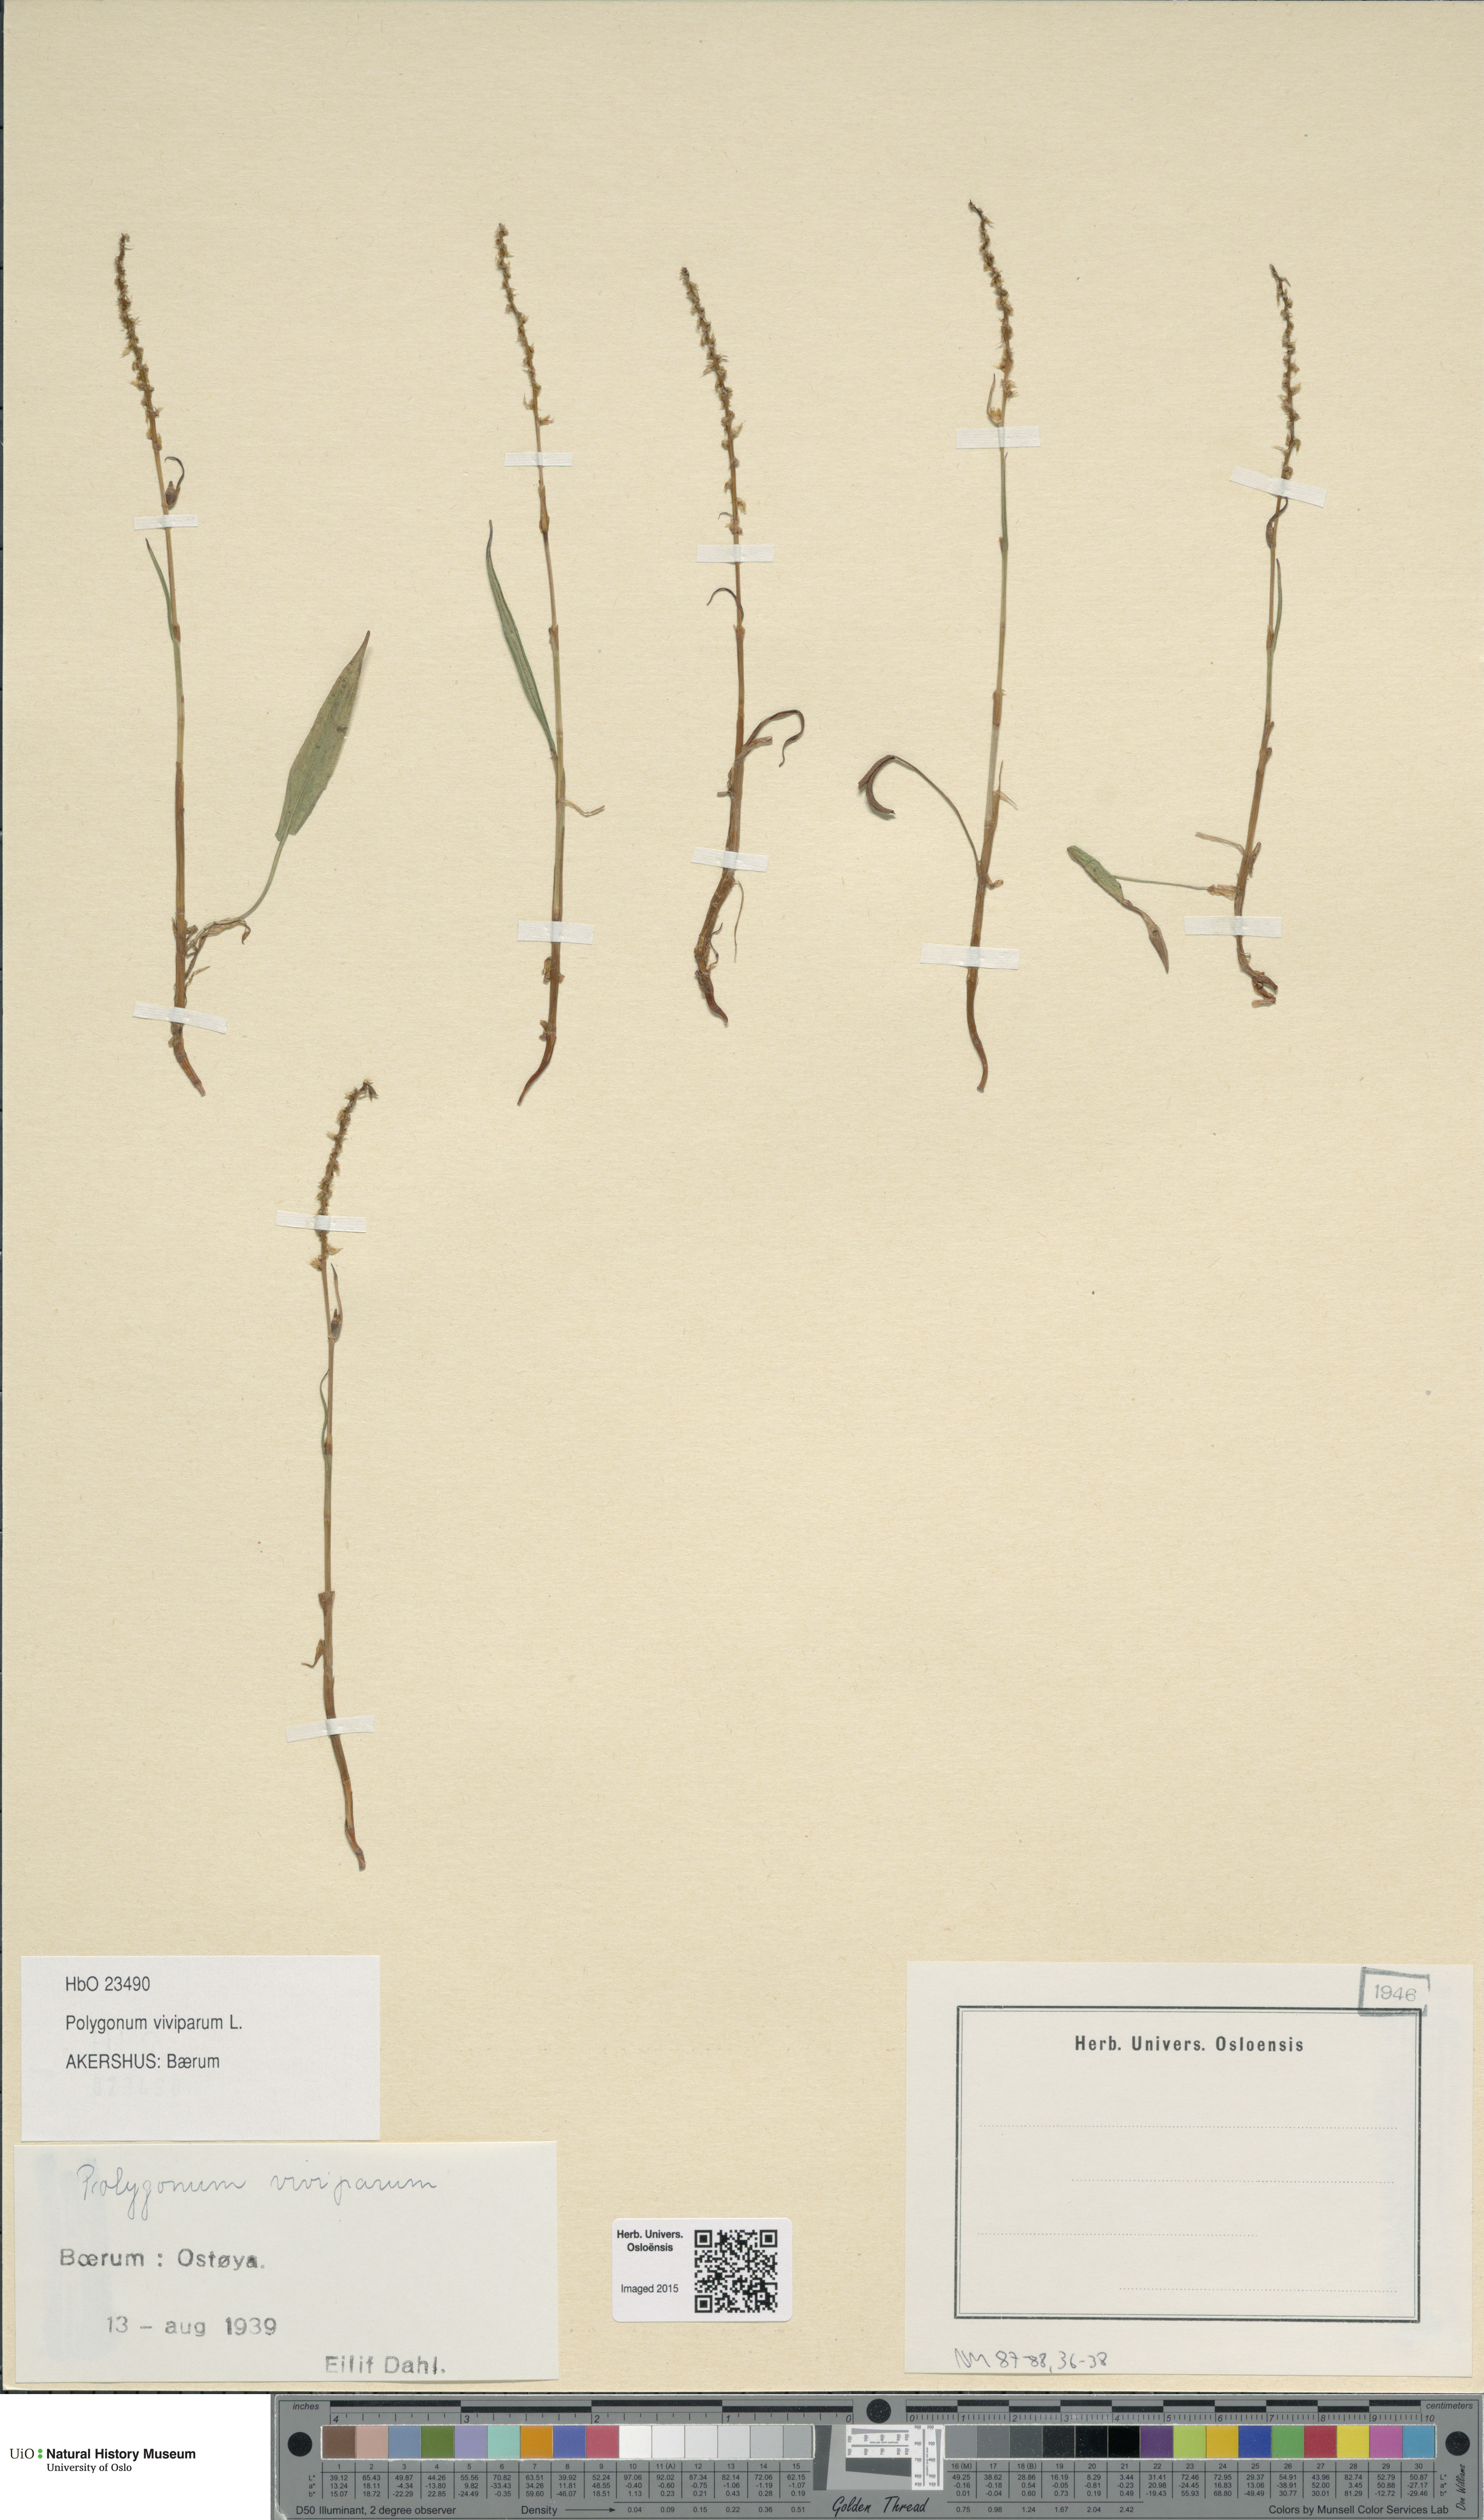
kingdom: Plantae
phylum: Tracheophyta
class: Magnoliopsida
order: Caryophyllales
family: Polygonaceae
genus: Bistorta
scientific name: Bistorta vivipara
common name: Alpine bistort
